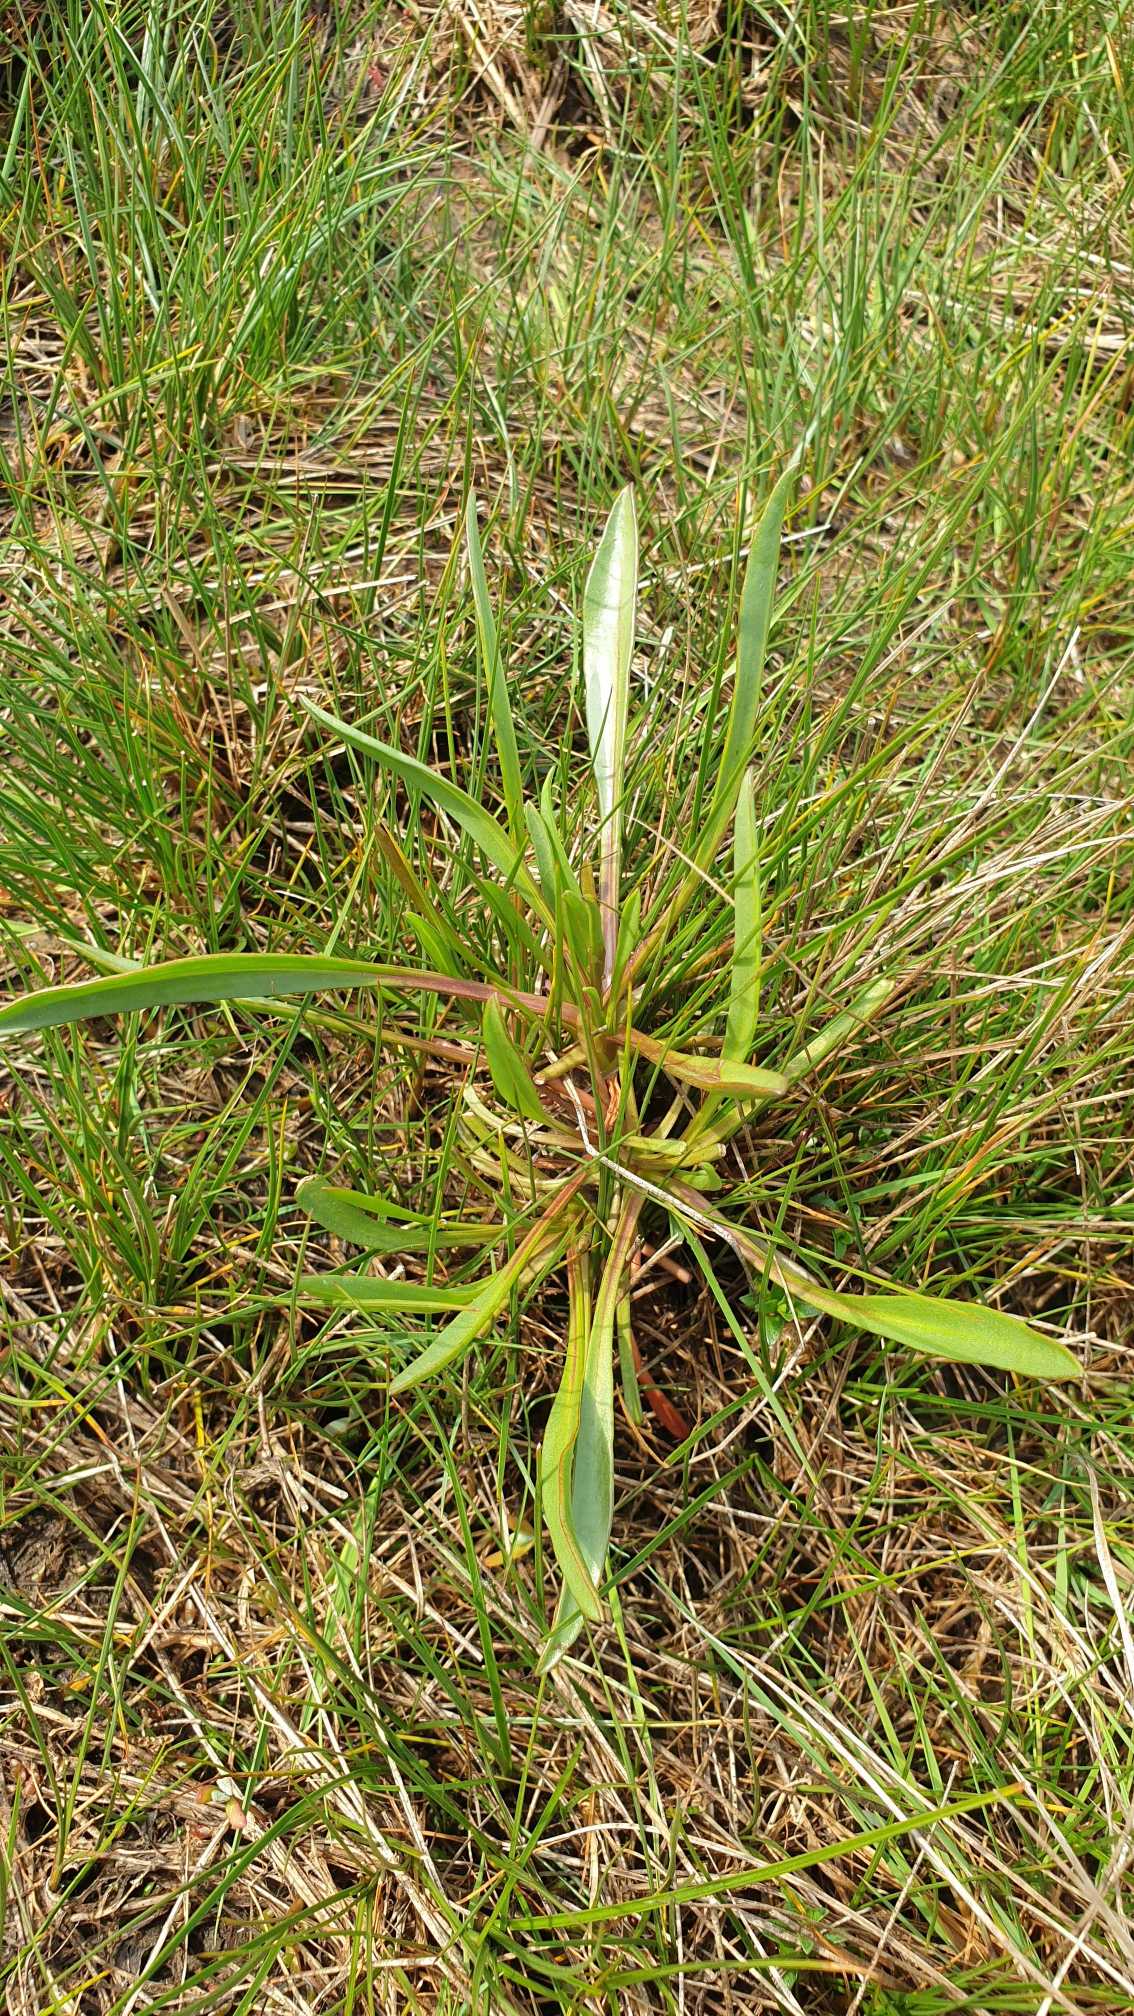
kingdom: Plantae
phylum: Tracheophyta
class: Magnoliopsida
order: Asterales
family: Asteraceae
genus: Tripolium
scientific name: Tripolium pannonicum
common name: Strandasters
